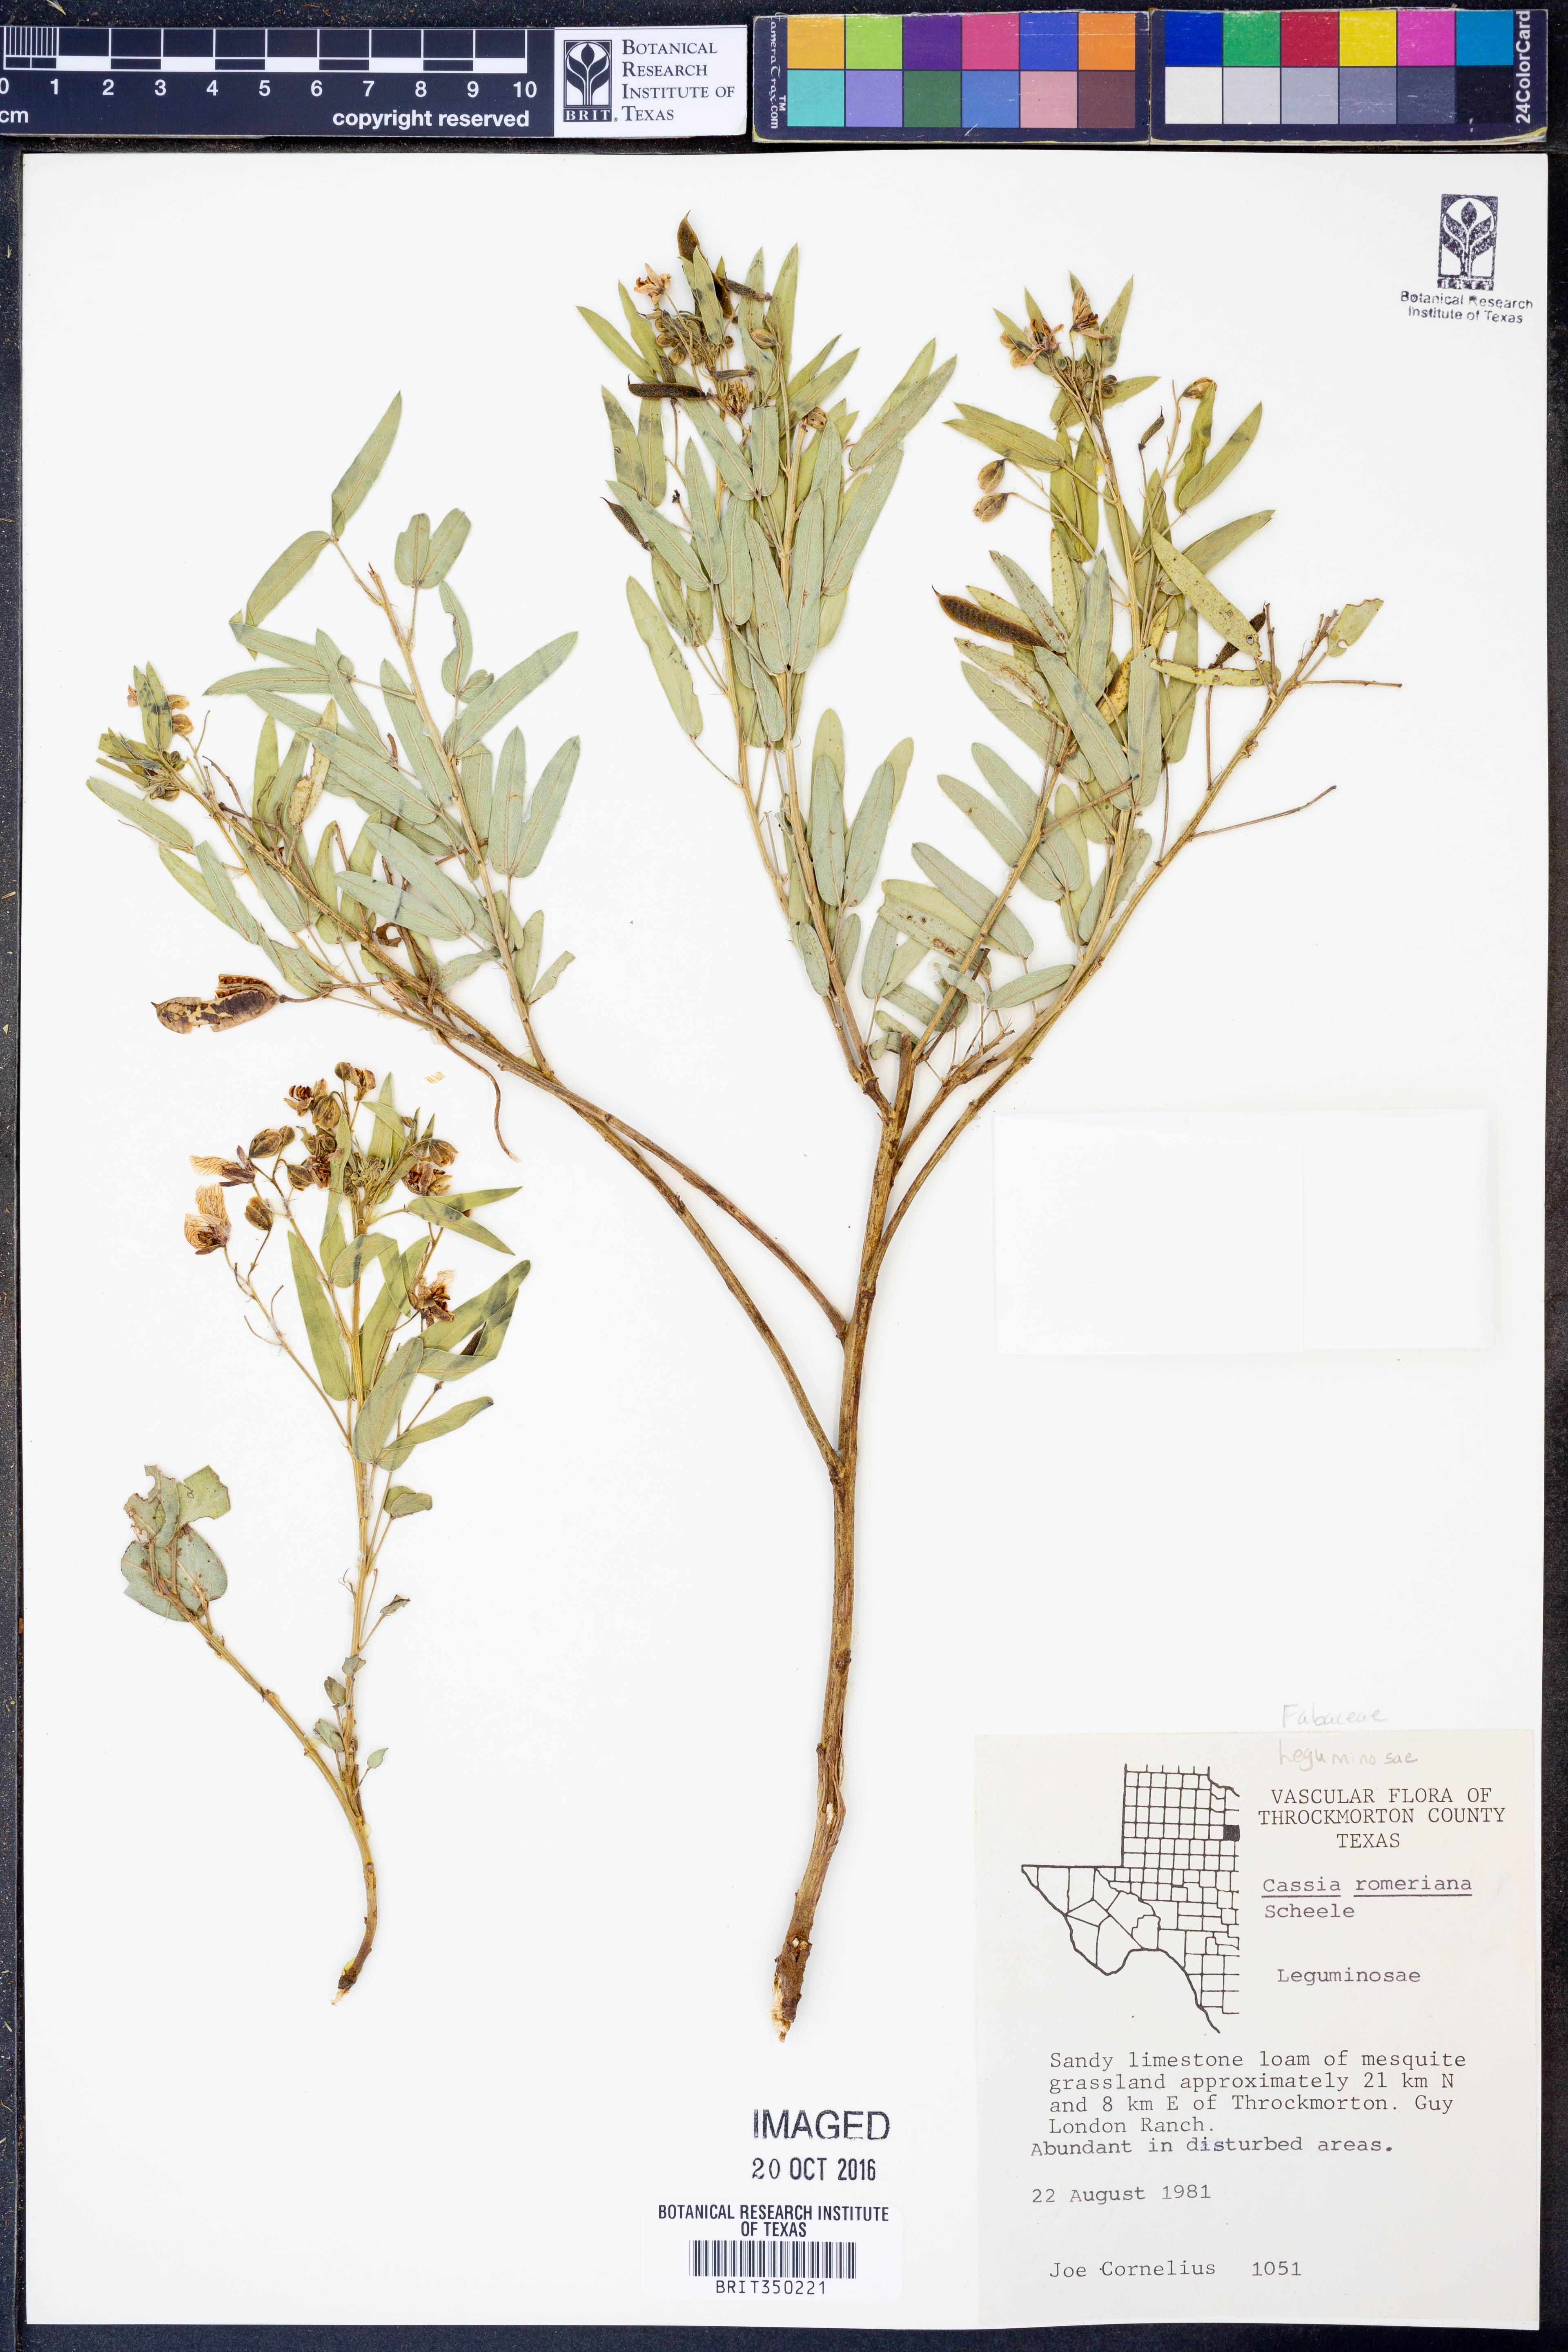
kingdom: Plantae
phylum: Tracheophyta
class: Magnoliopsida
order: Fabales
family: Fabaceae
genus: Senna
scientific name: Senna roemeriana
